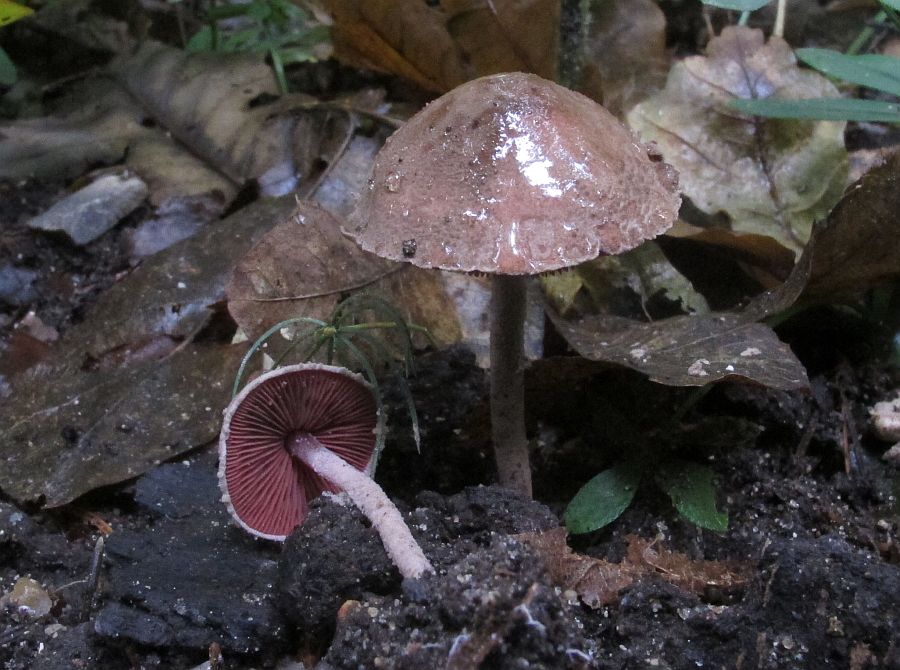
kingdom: Fungi
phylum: Basidiomycota
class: Agaricomycetes
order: Agaricales
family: Agaricaceae
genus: Melanophyllum
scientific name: Melanophyllum haematospermum
